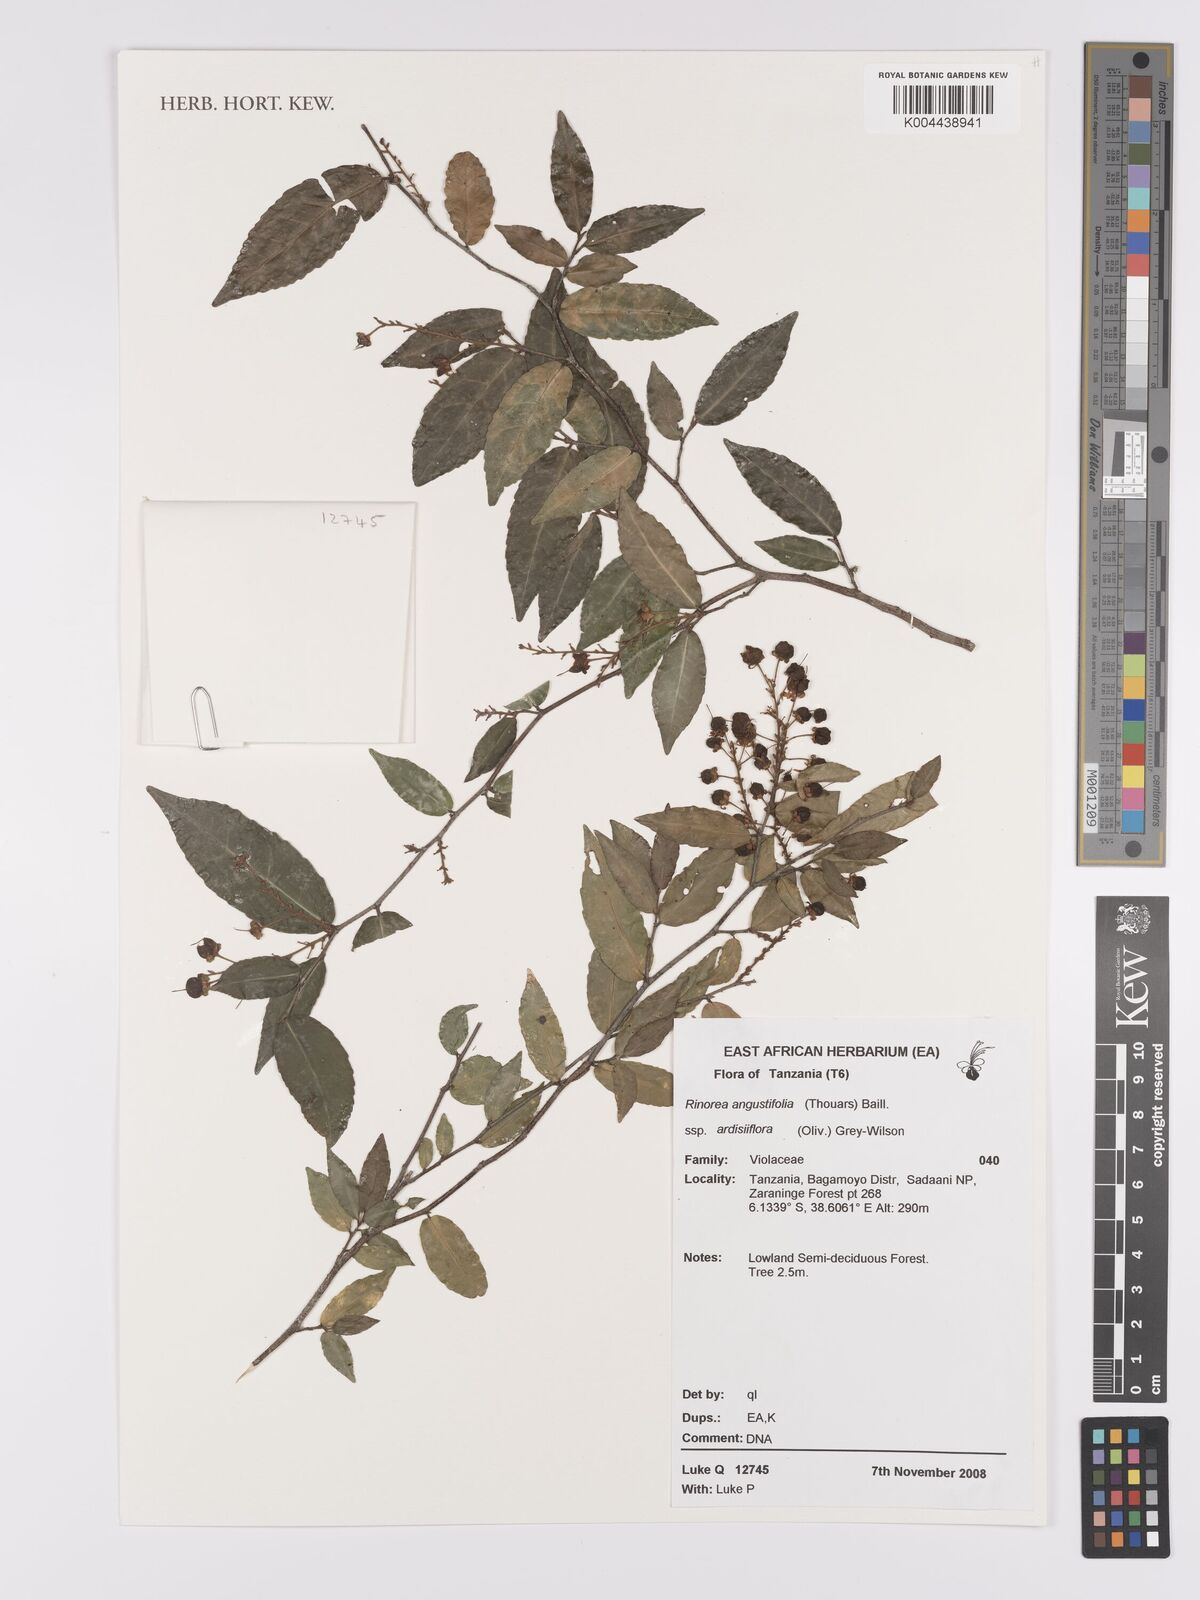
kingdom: Plantae
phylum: Tracheophyta
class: Magnoliopsida
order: Malpighiales
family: Violaceae
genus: Rinorea
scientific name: Rinorea angustifolia
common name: White violet-bush
